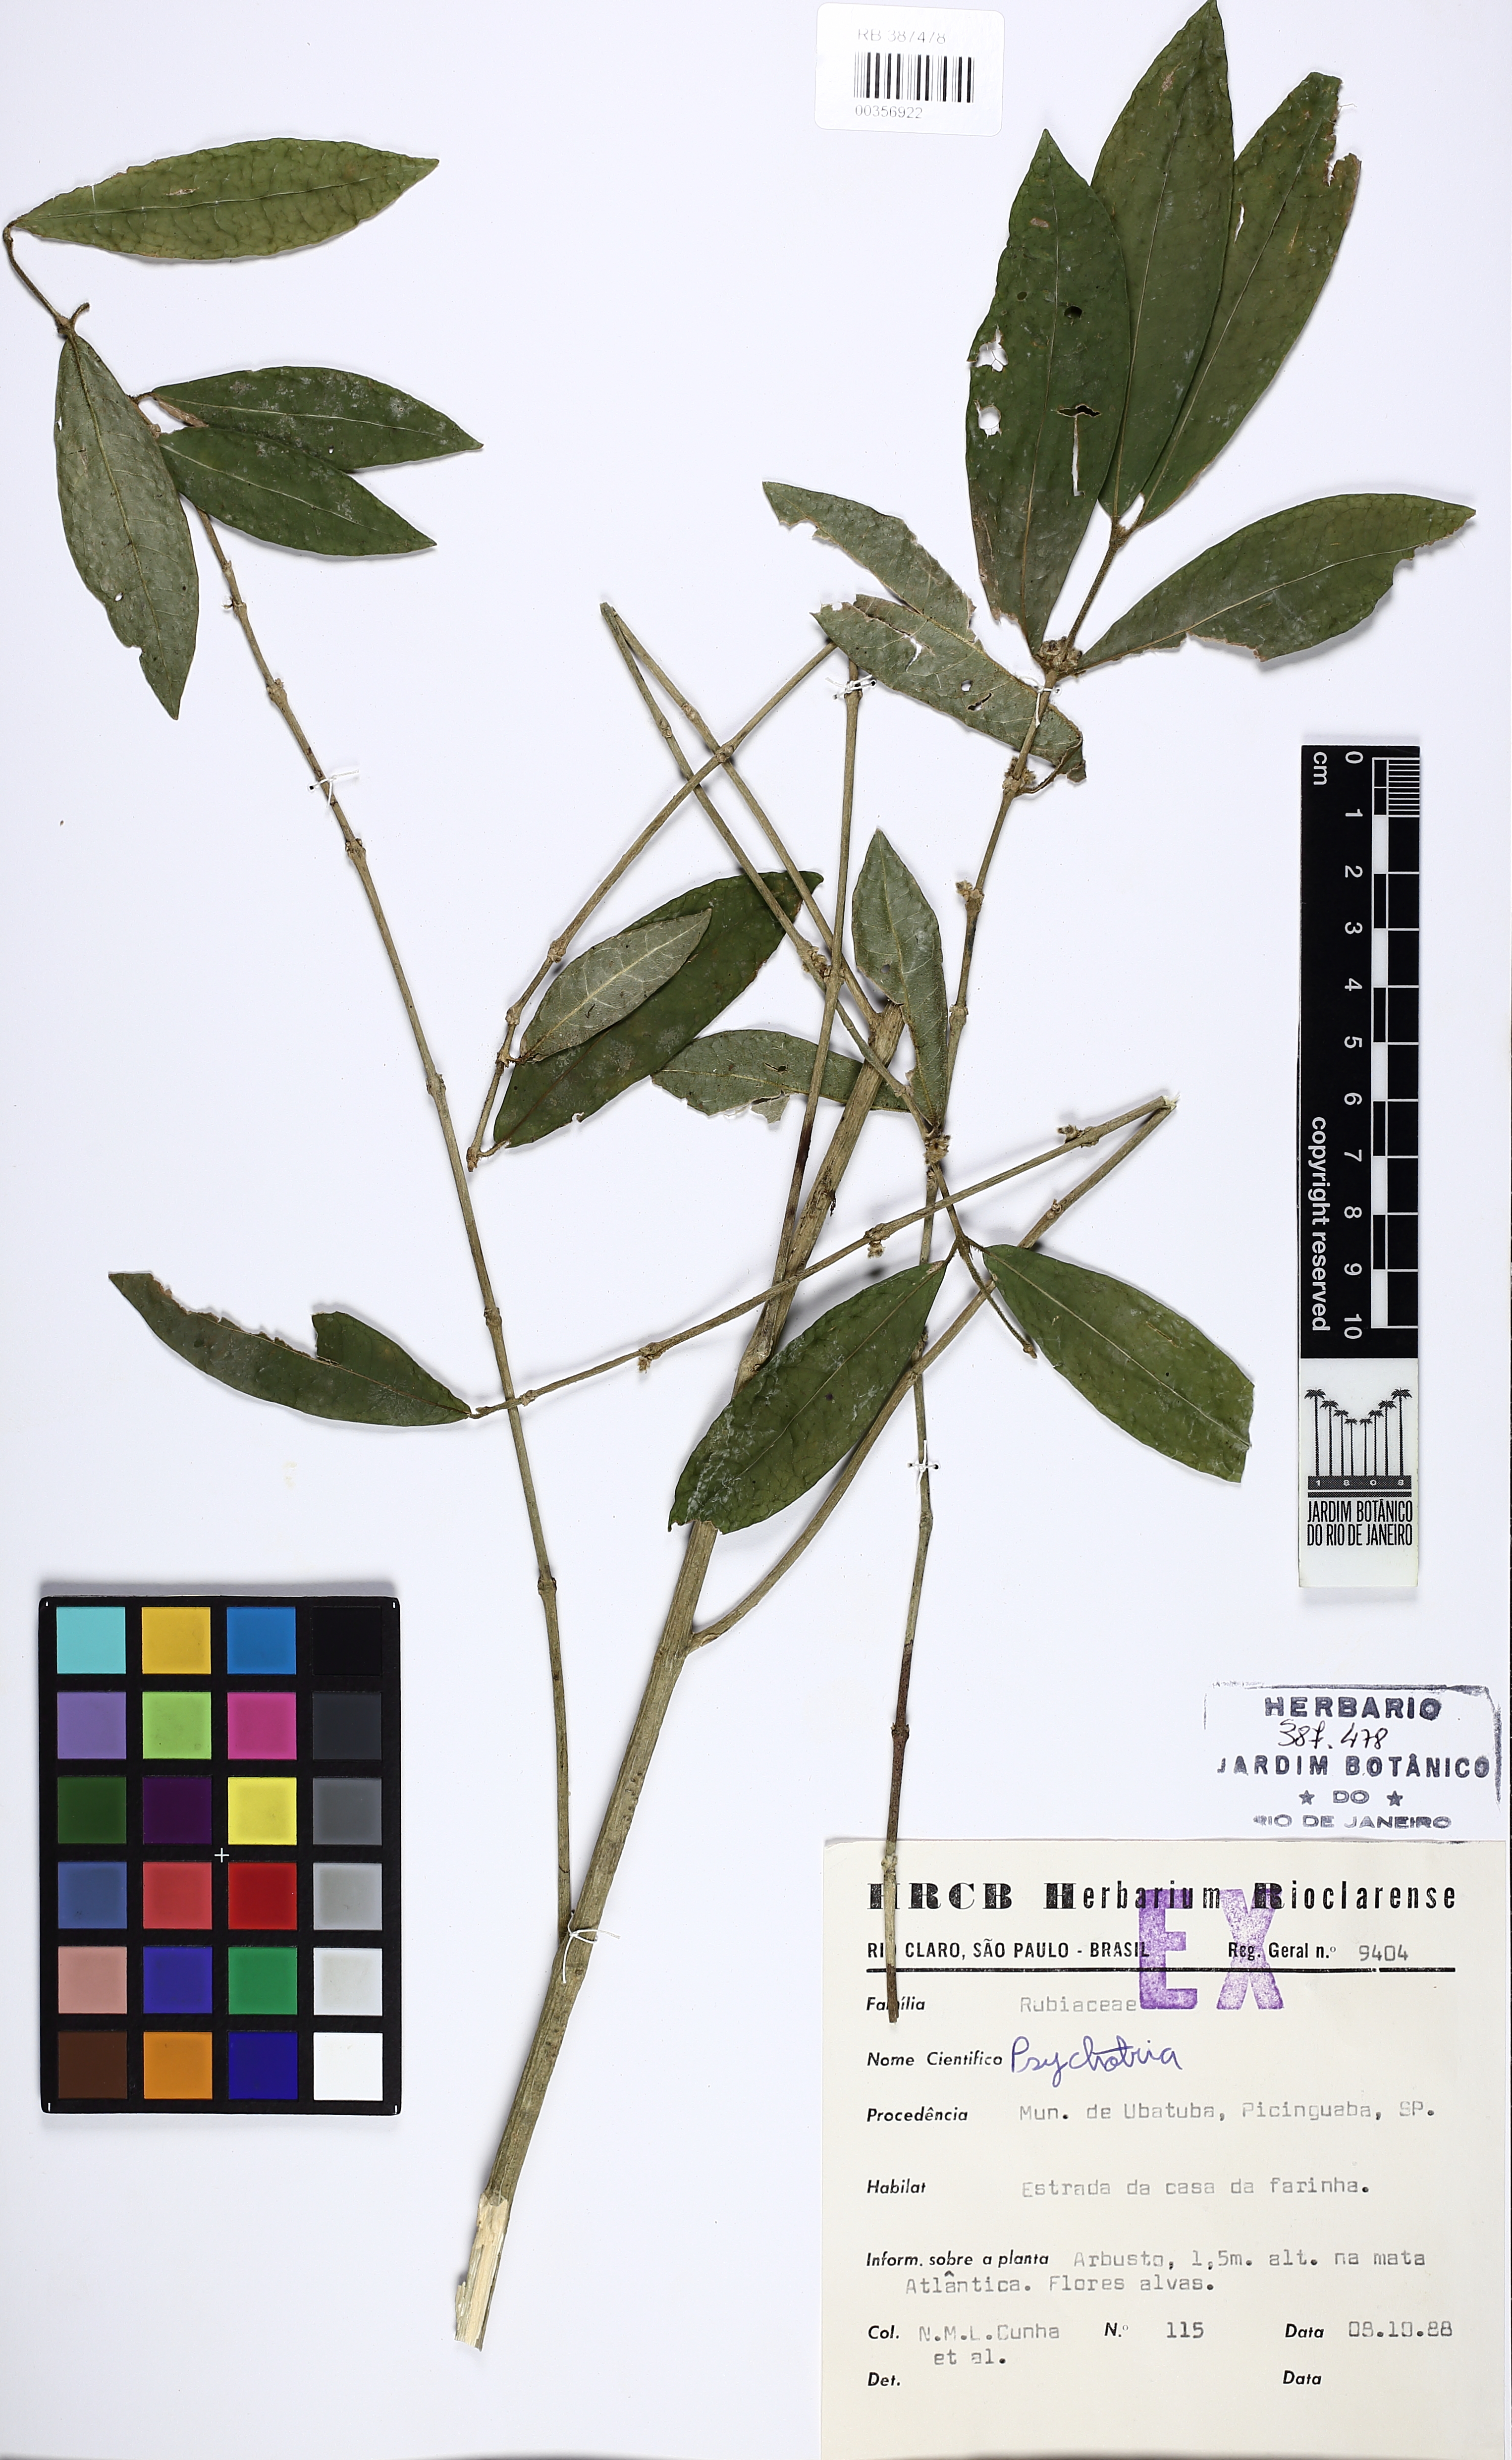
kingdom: Plantae
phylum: Tracheophyta
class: Magnoliopsida
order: Gentianales
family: Rubiaceae
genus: Psychotria
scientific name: Psychotria
